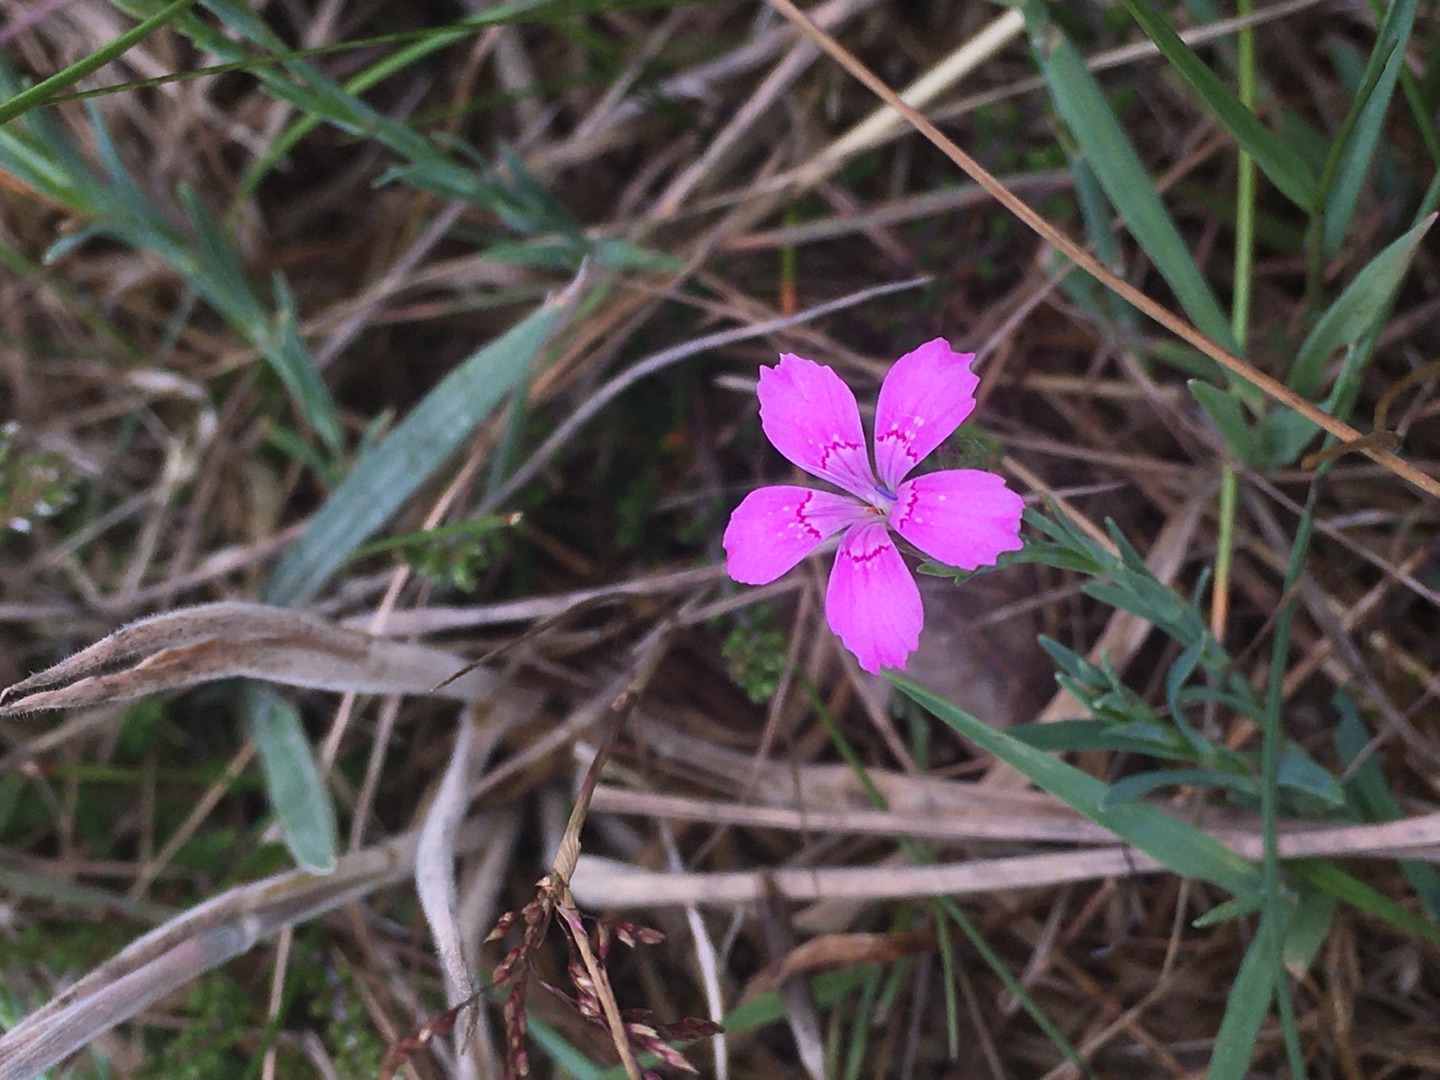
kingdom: Plantae
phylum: Tracheophyta
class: Magnoliopsida
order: Caryophyllales
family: Caryophyllaceae
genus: Dianthus
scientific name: Dianthus deltoides
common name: Bakke-nellike
